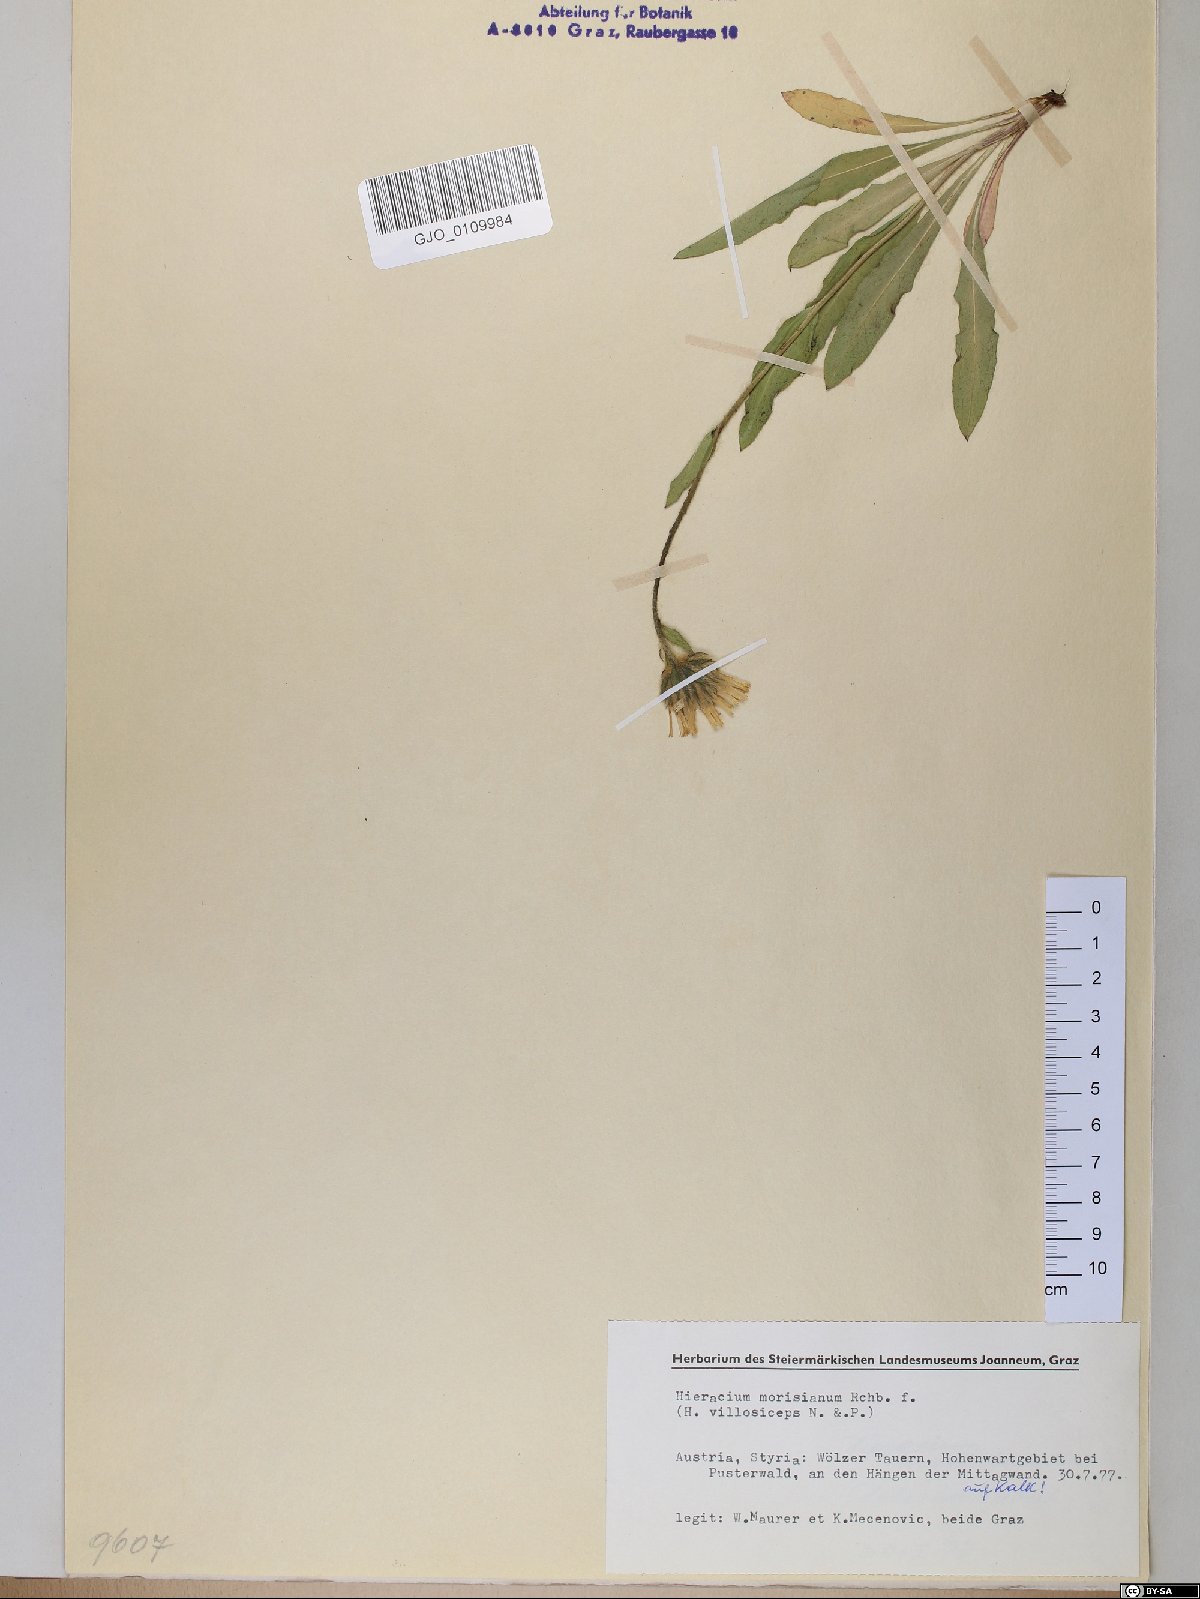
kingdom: Plantae
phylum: Tracheophyta
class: Magnoliopsida
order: Asterales
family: Asteraceae
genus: Hieracium
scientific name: Hieracium pilosum
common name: Fimbriate-pitted hawkweed
